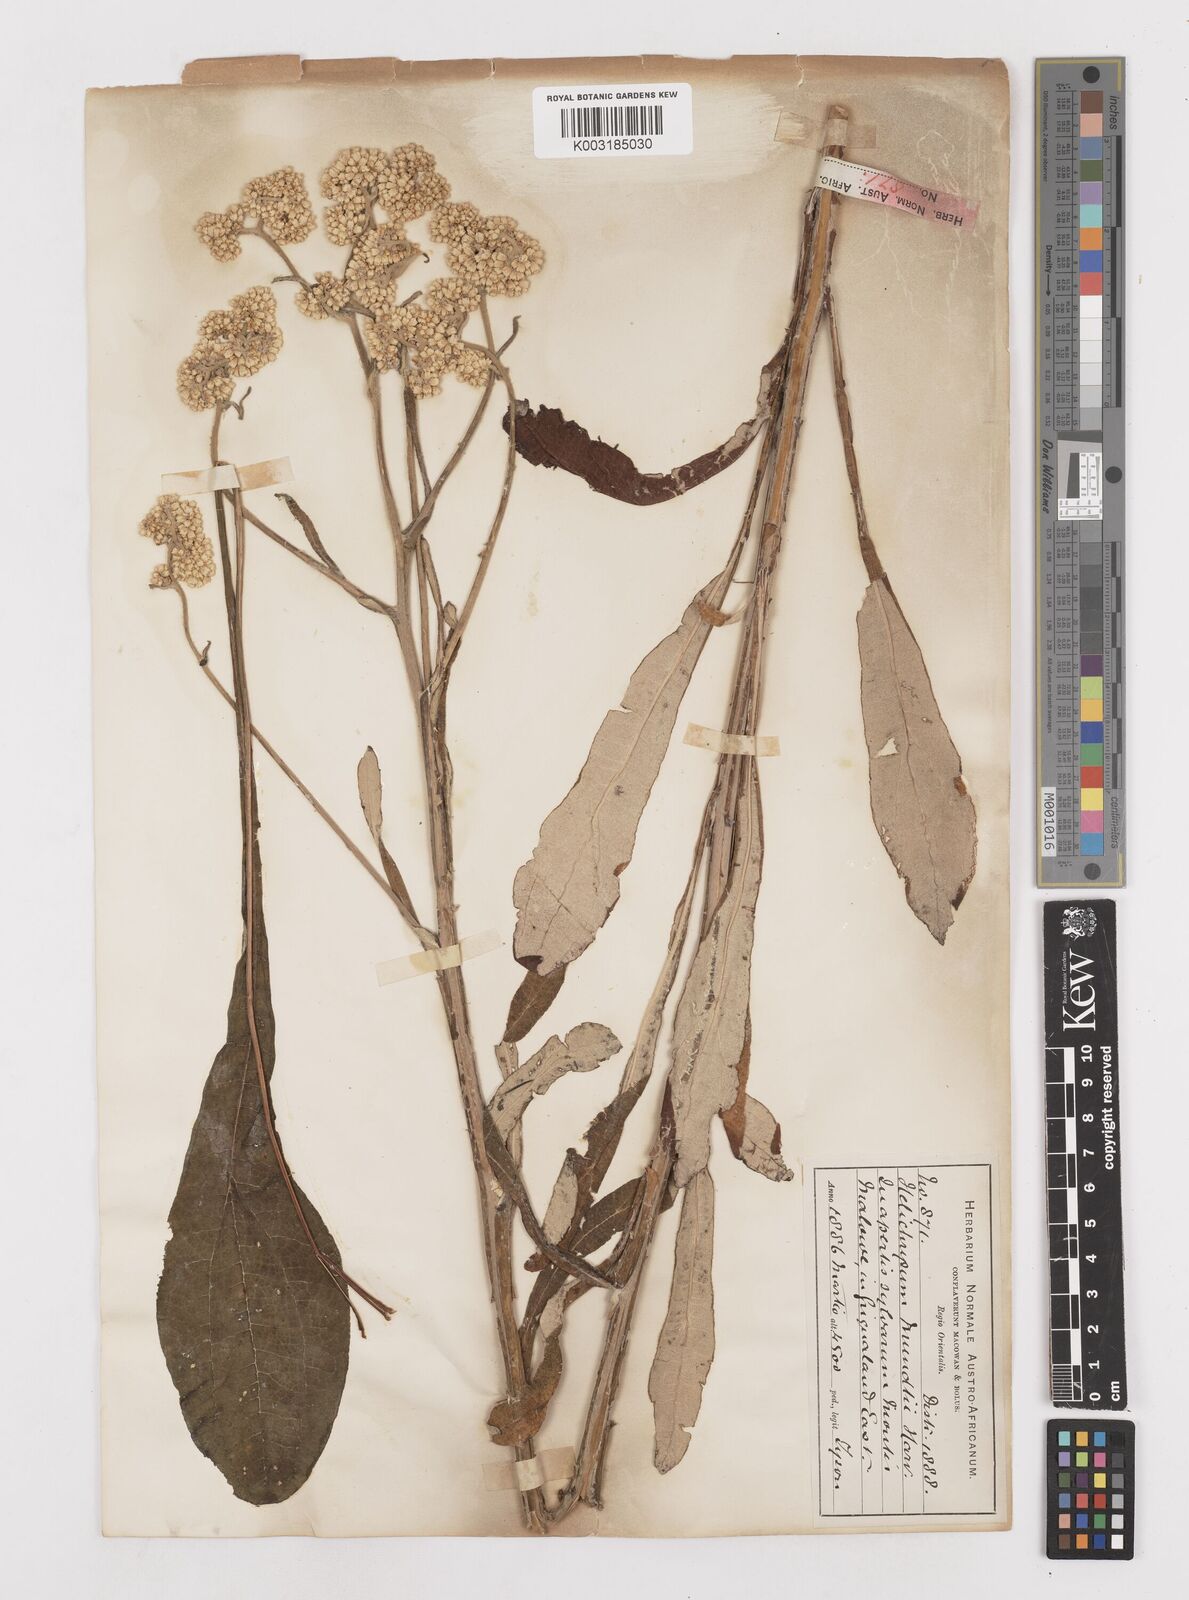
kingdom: Plantae
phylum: Tracheophyta
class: Magnoliopsida
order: Asterales
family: Asteraceae
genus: Helichrysum
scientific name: Helichrysum mundii
